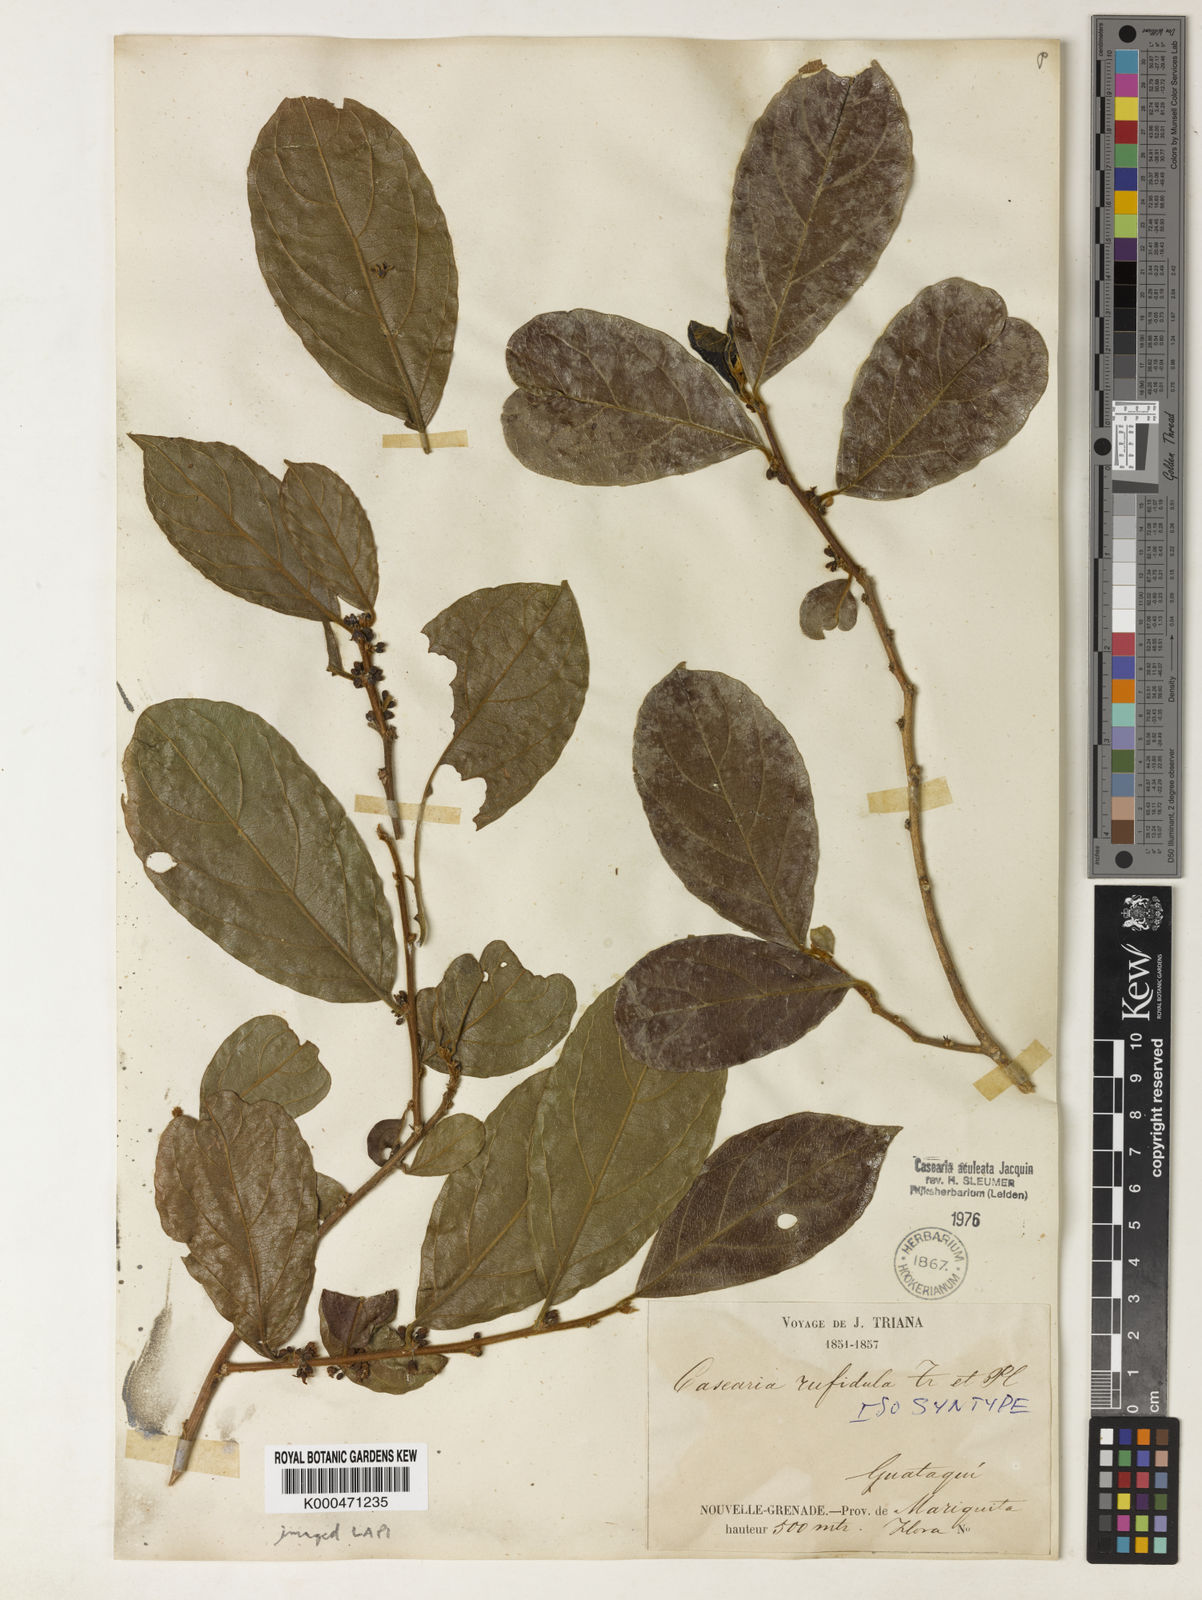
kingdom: Plantae
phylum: Tracheophyta
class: Magnoliopsida
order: Malpighiales
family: Salicaceae
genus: Casearia
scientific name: Casearia aculeata
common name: Cockspur
